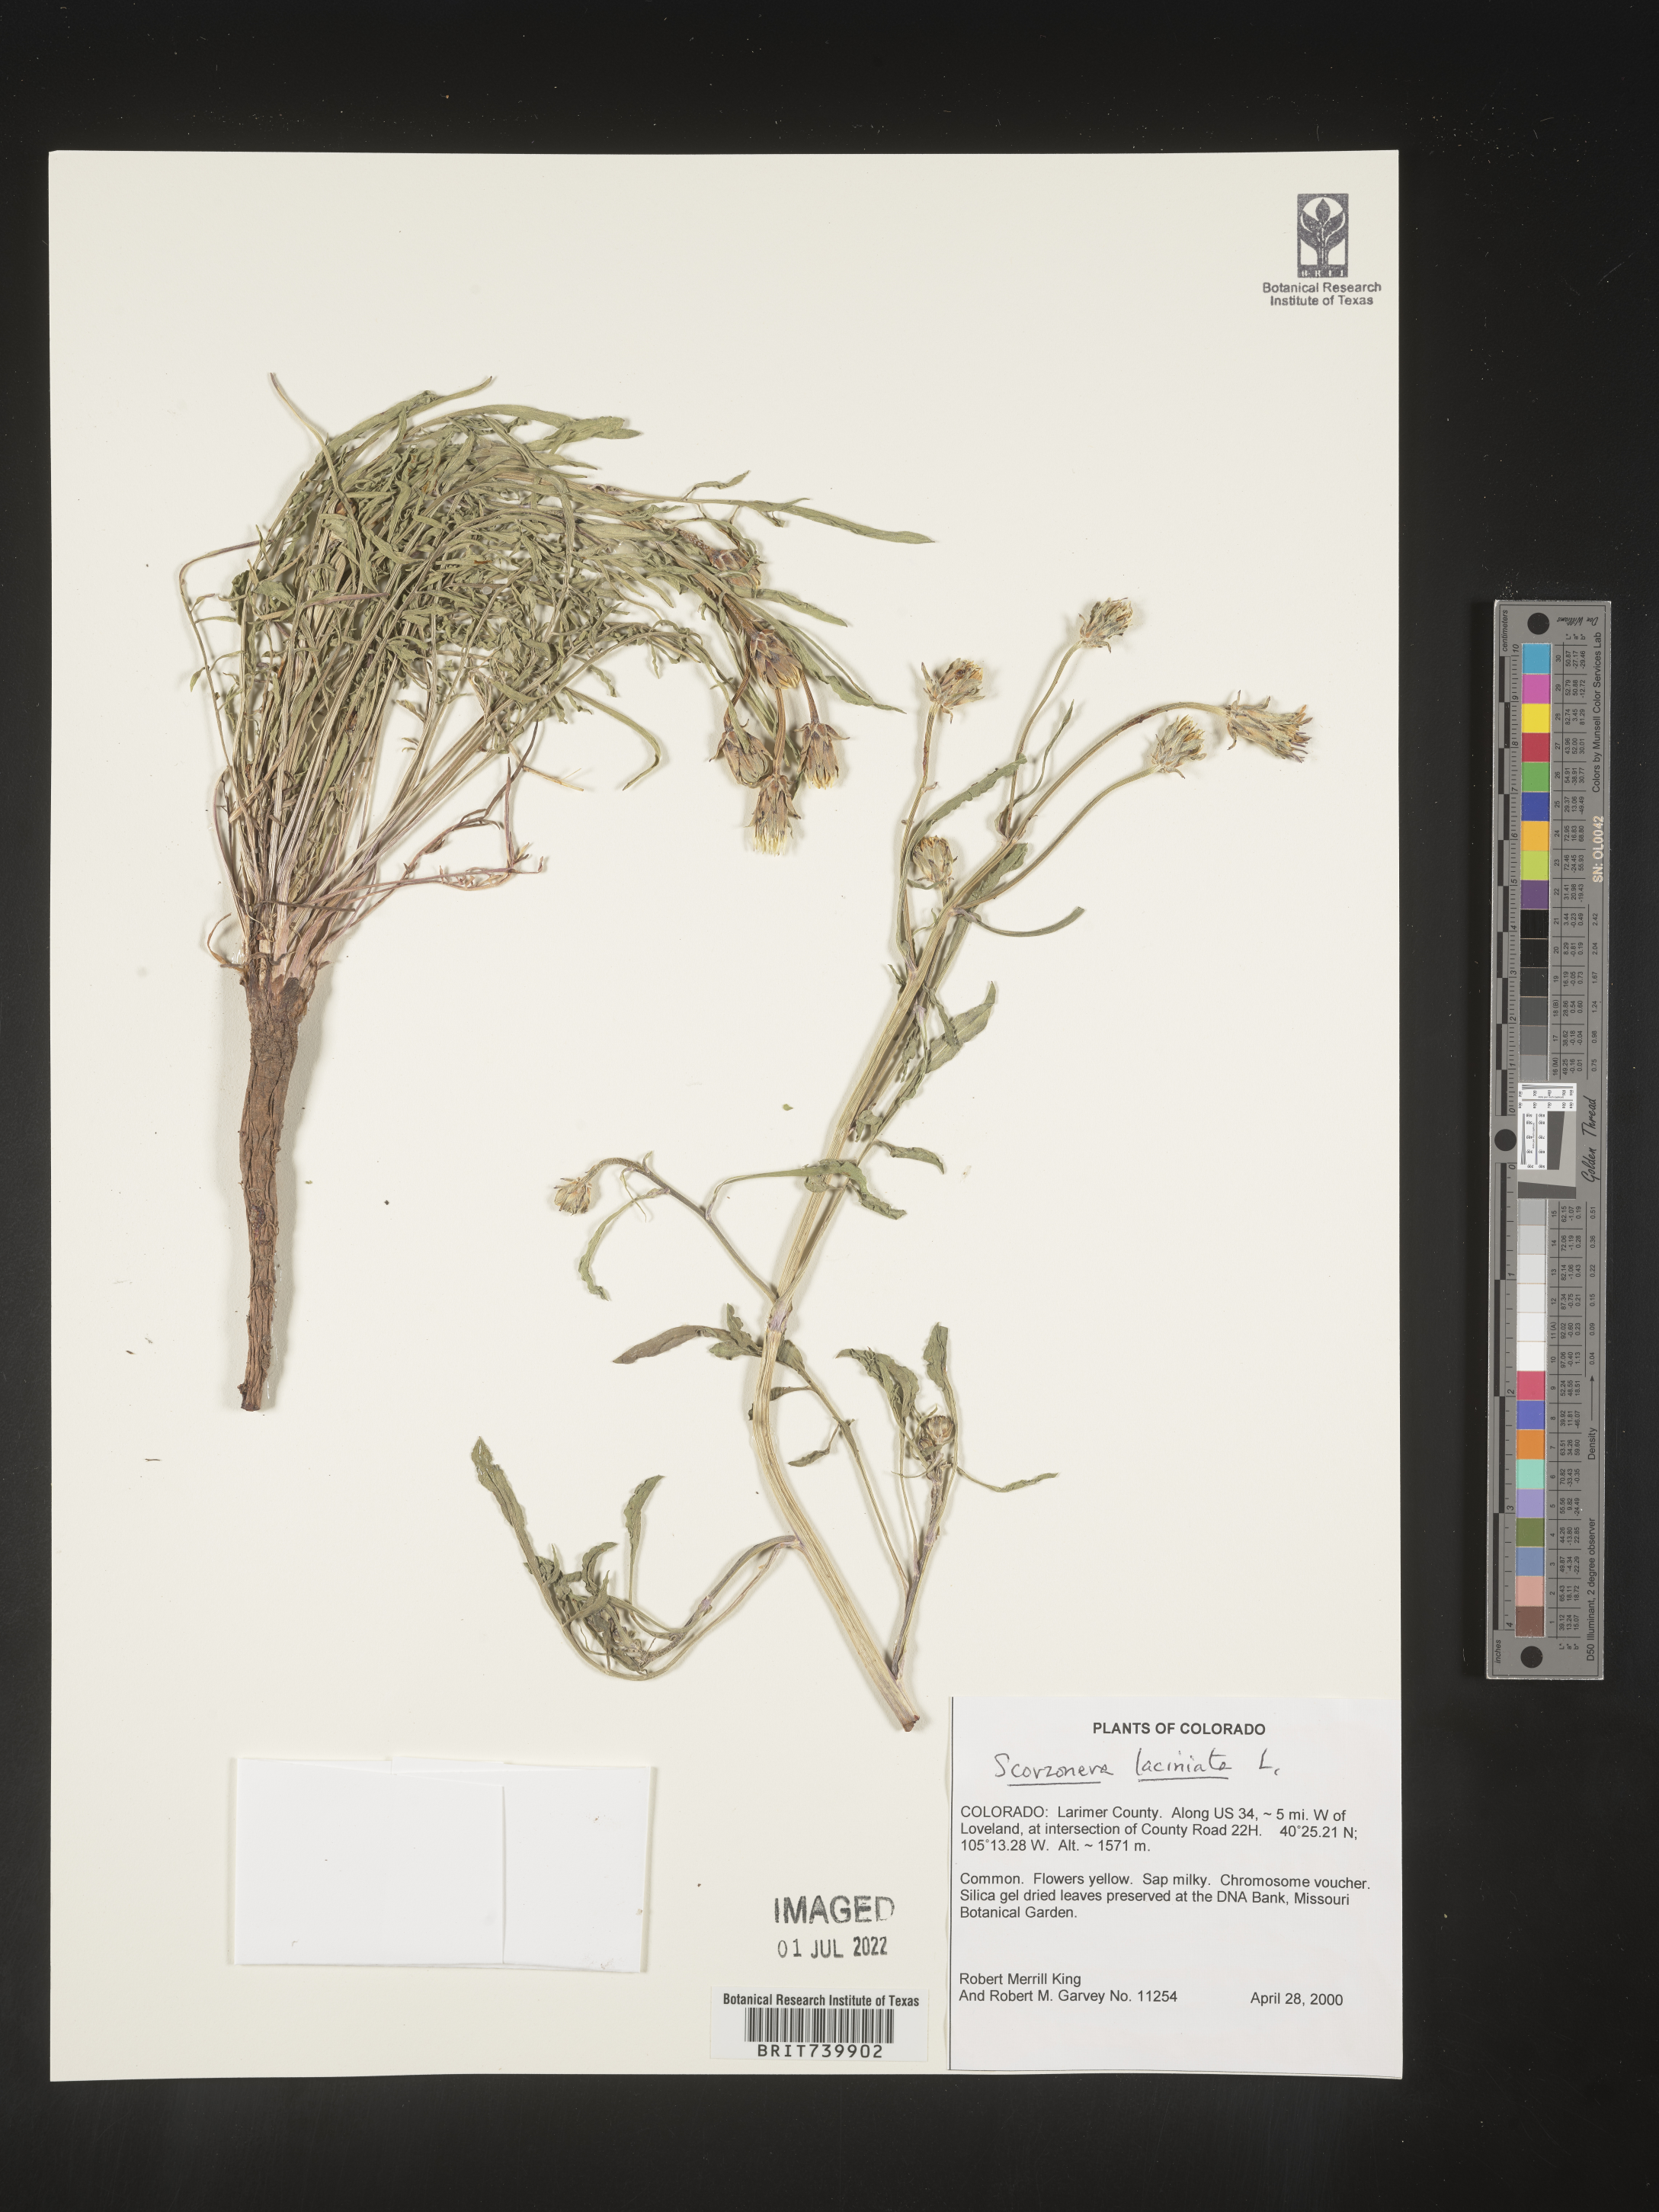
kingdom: Plantae
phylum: Tracheophyta
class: Magnoliopsida
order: Asterales
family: Asteraceae
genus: Scorzonera
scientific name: Scorzonera
